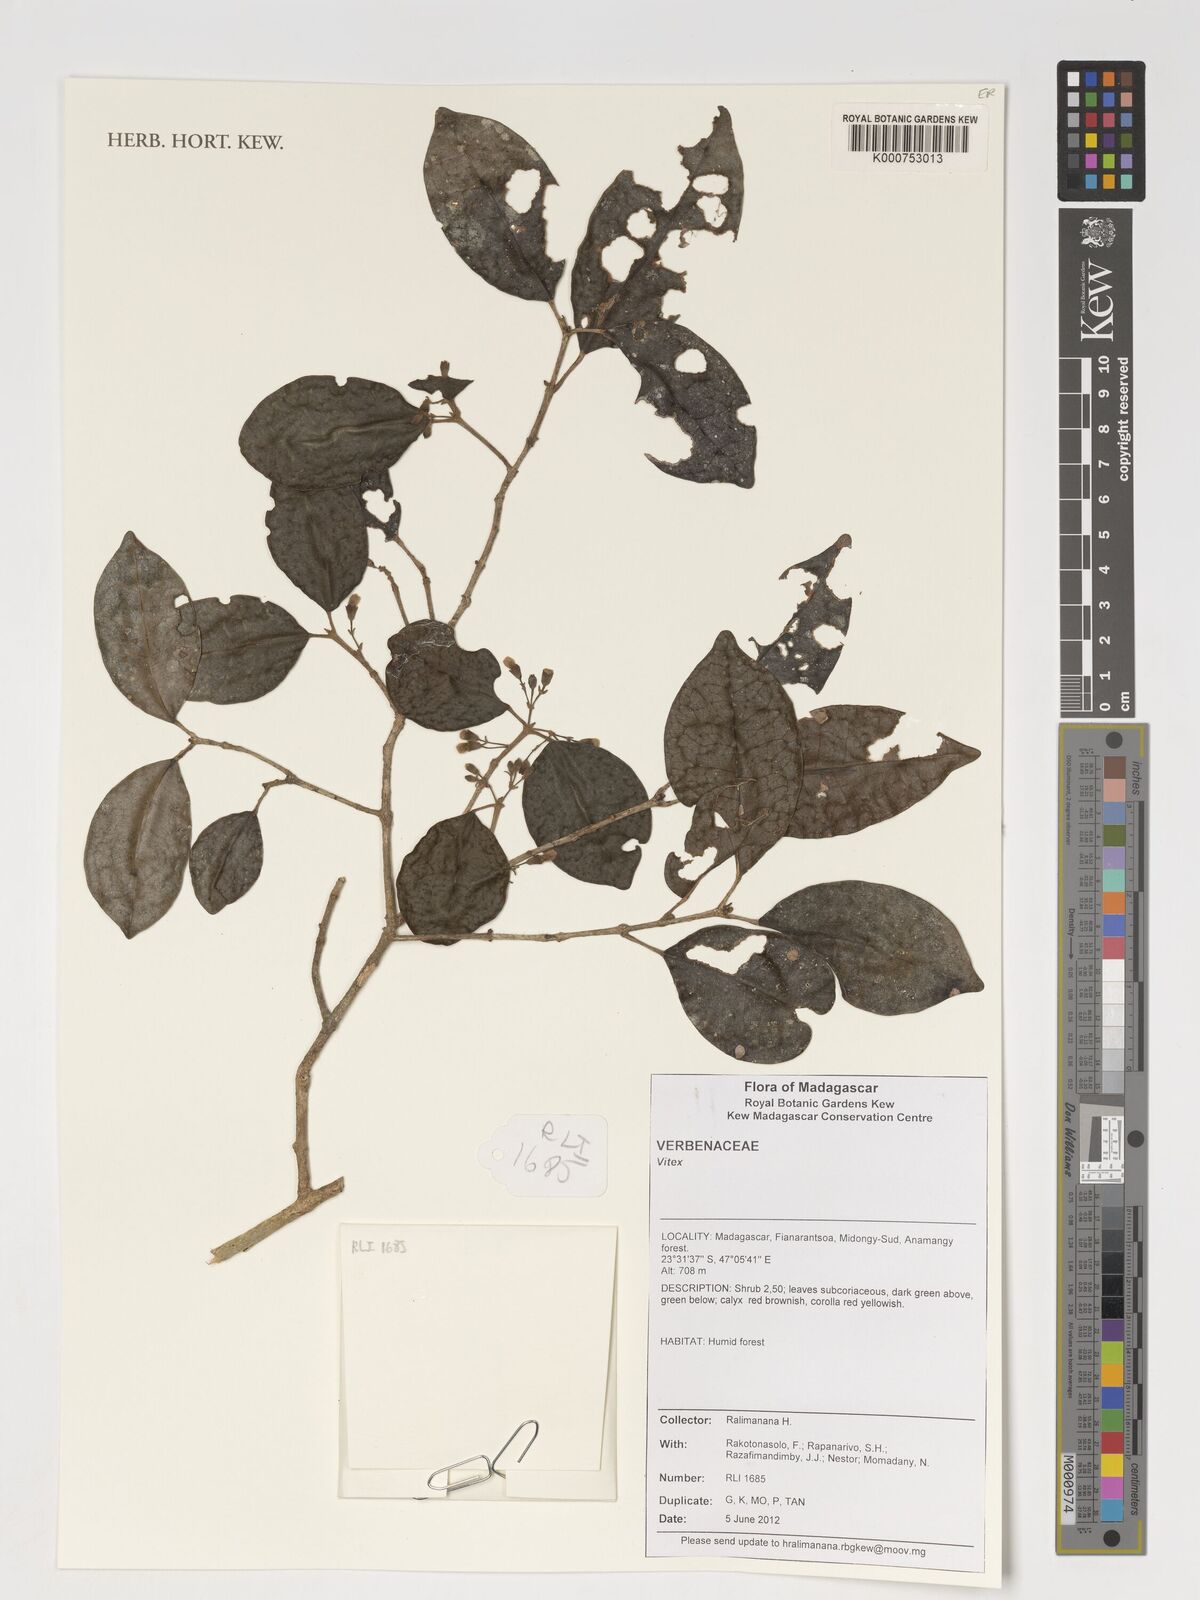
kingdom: Plantae
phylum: Tracheophyta
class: Magnoliopsida
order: Lamiales
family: Lamiaceae
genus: Vitex
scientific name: Vitex
